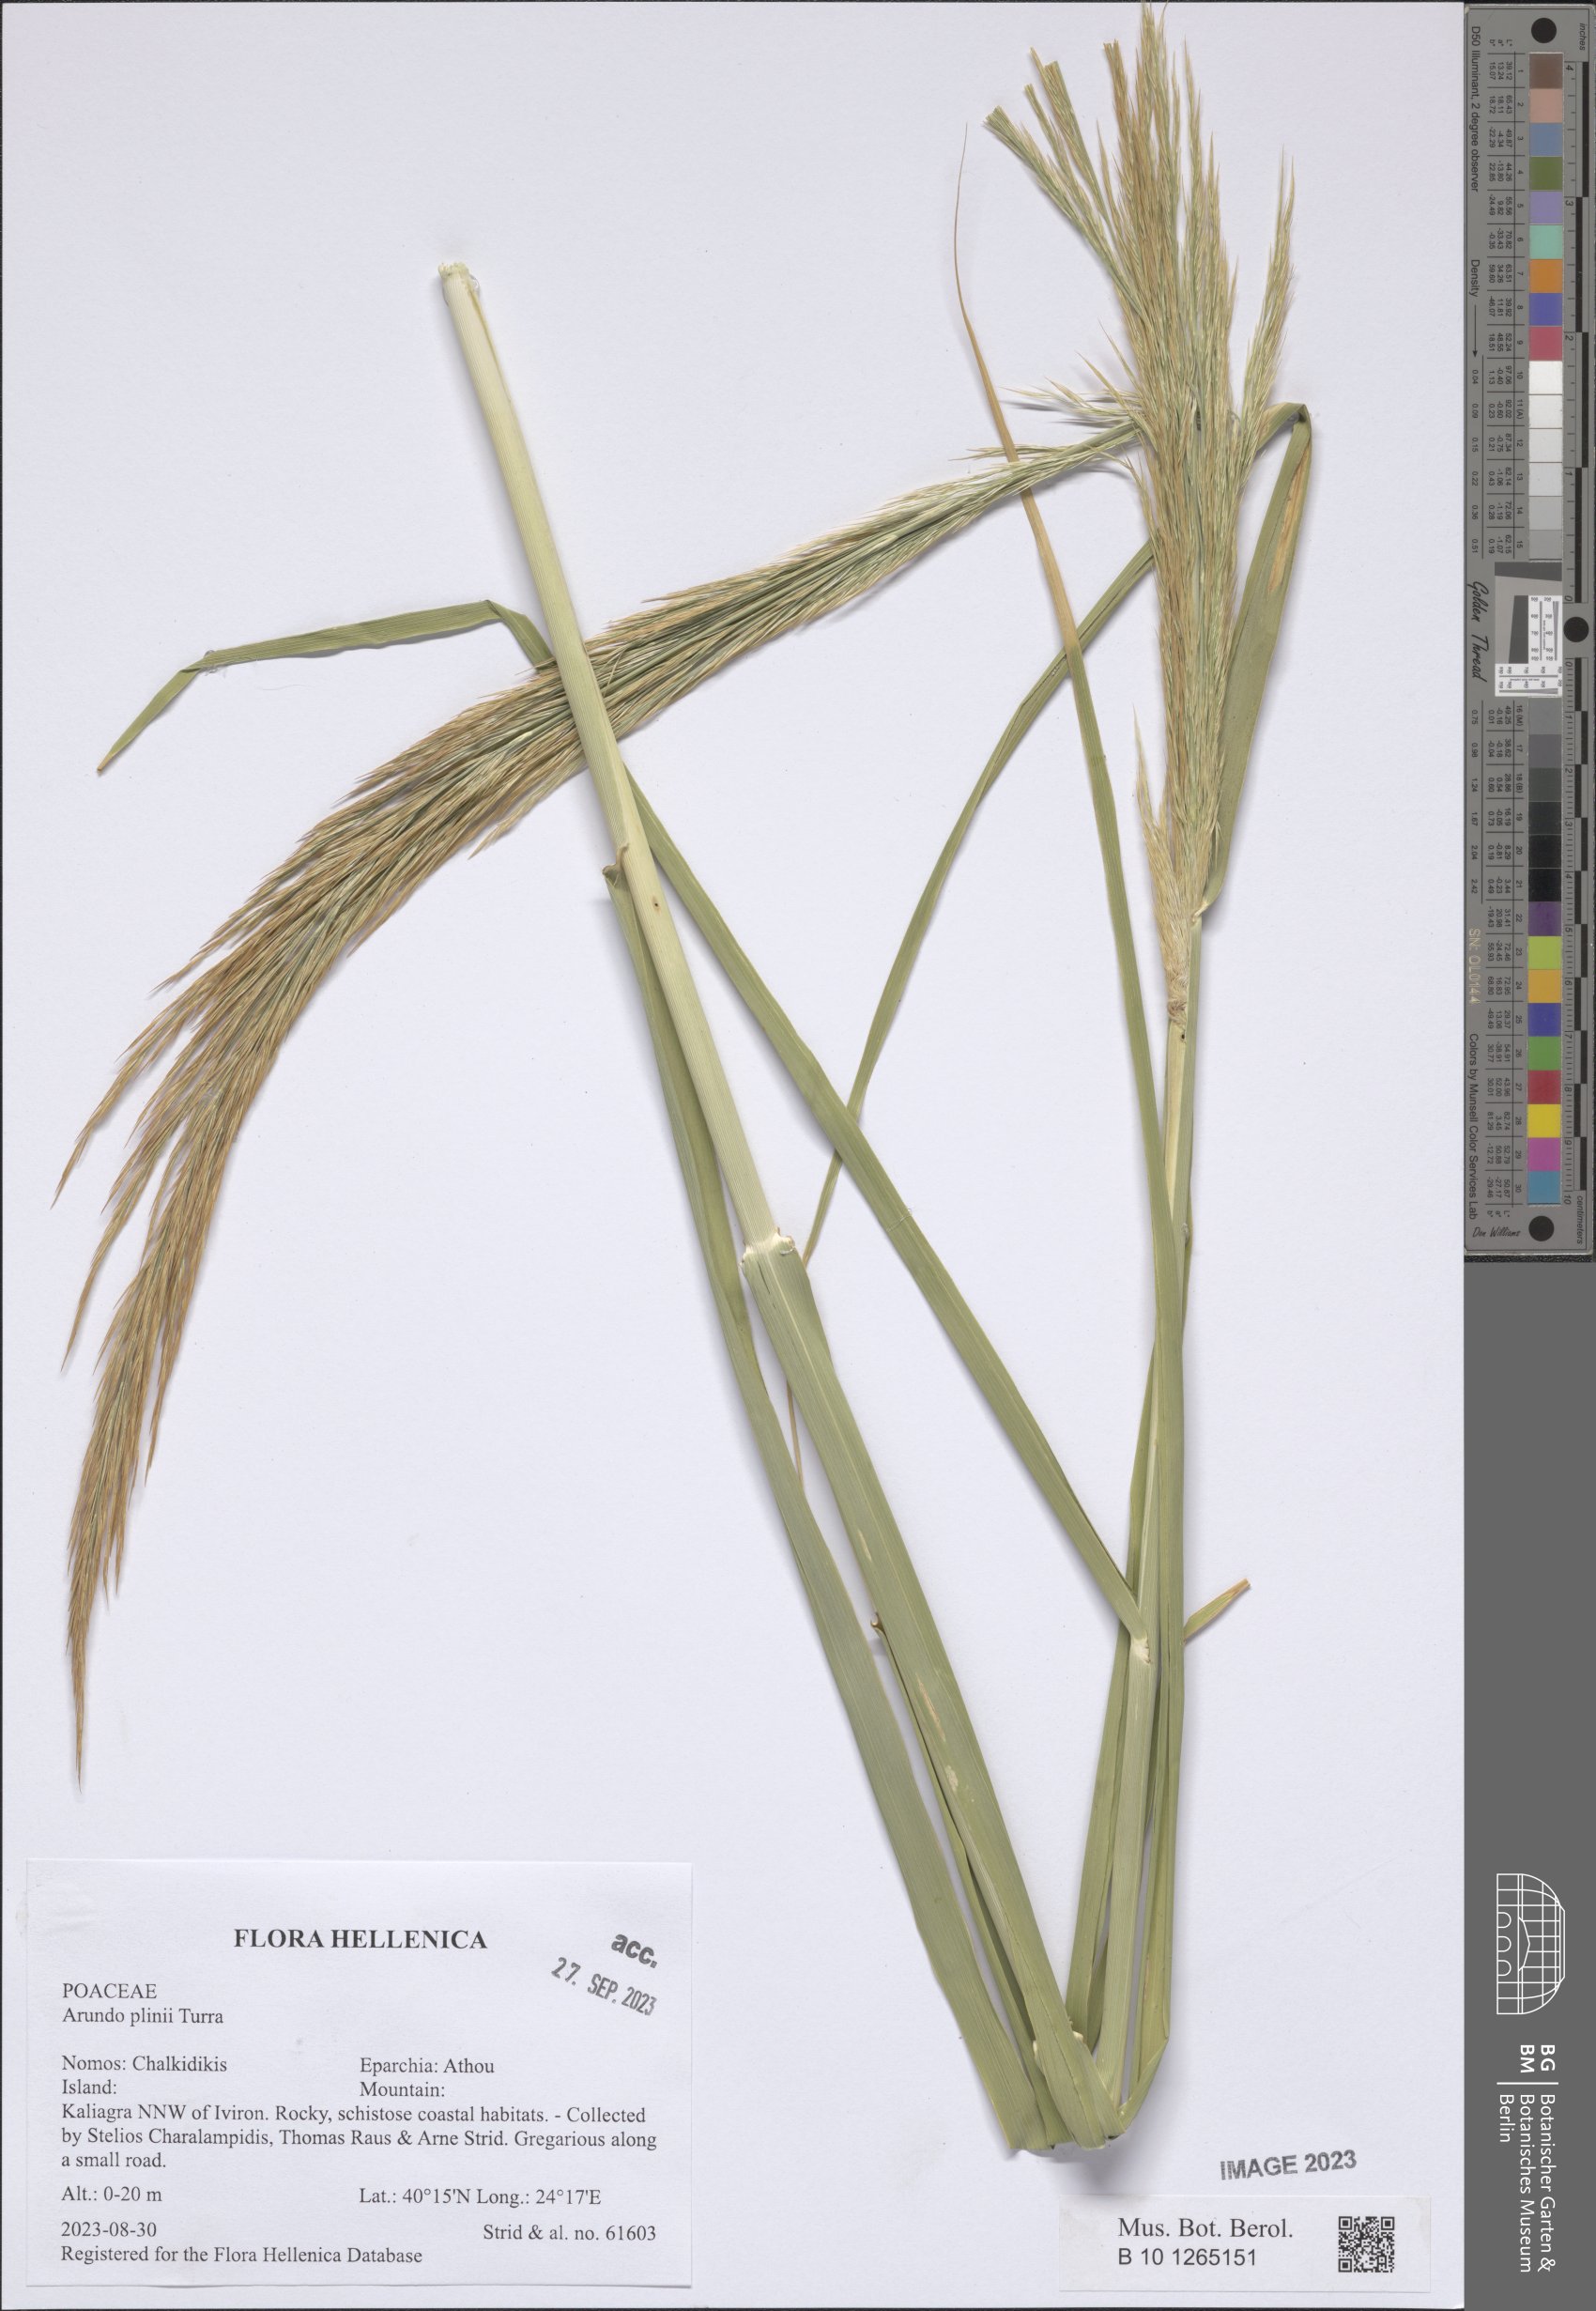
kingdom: Plantae
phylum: Tracheophyta
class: Liliopsida
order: Poales
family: Poaceae
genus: Arundo
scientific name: Arundo plinii
